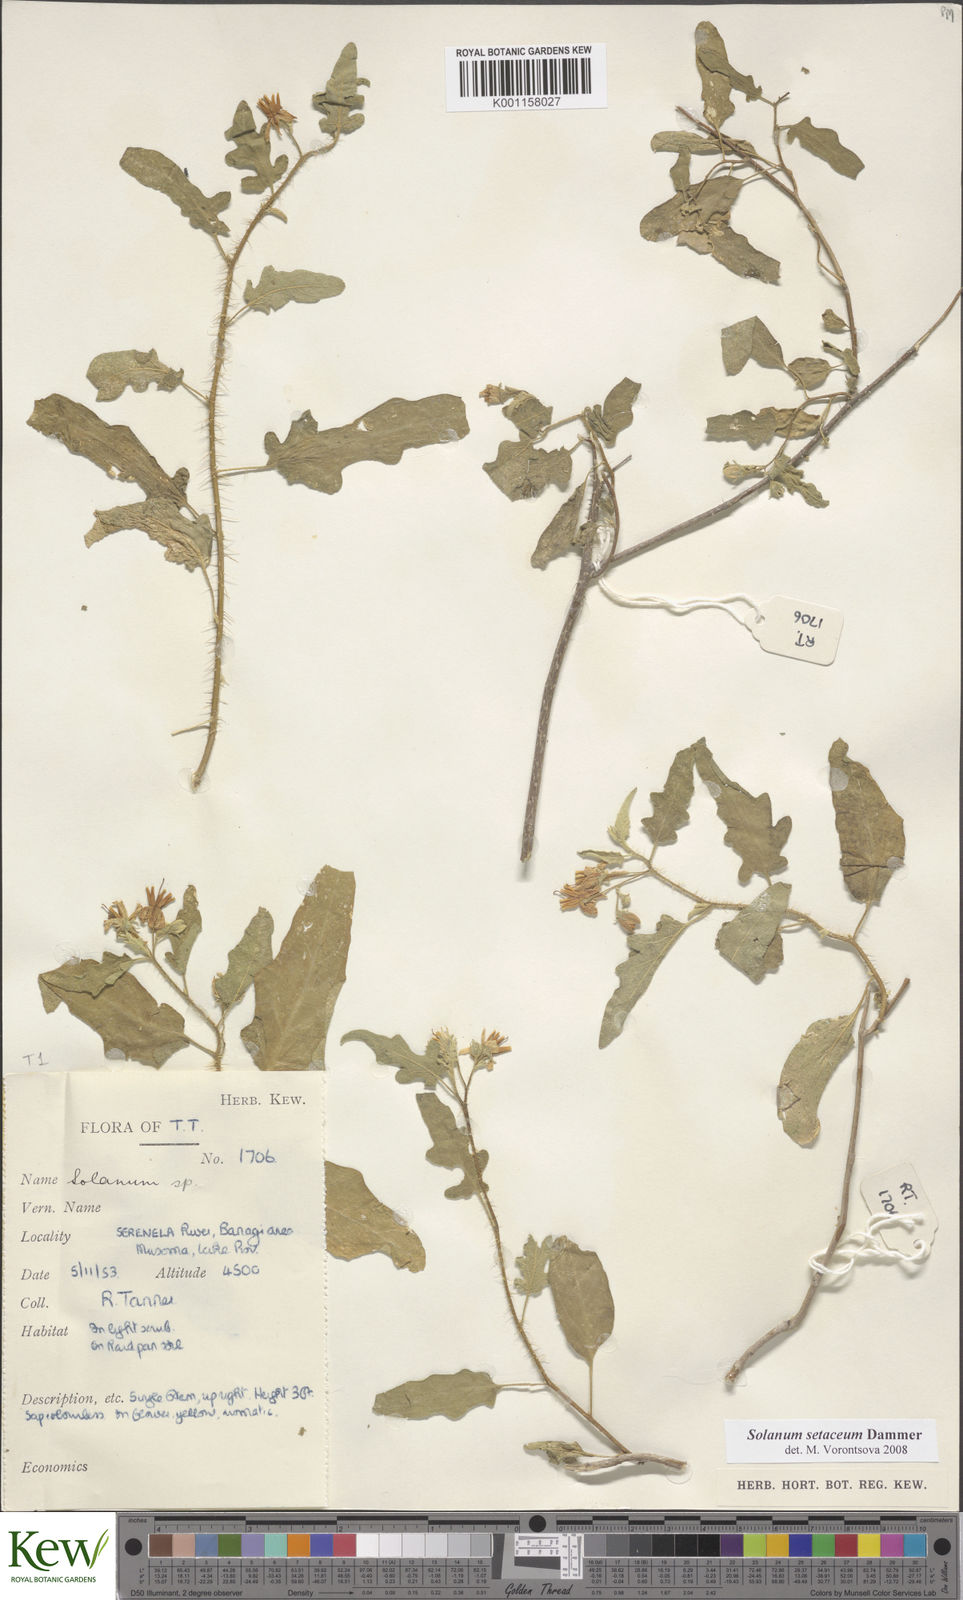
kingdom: Plantae
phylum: Tracheophyta
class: Magnoliopsida
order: Solanales
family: Solanaceae
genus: Solanum
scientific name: Solanum setaceum
